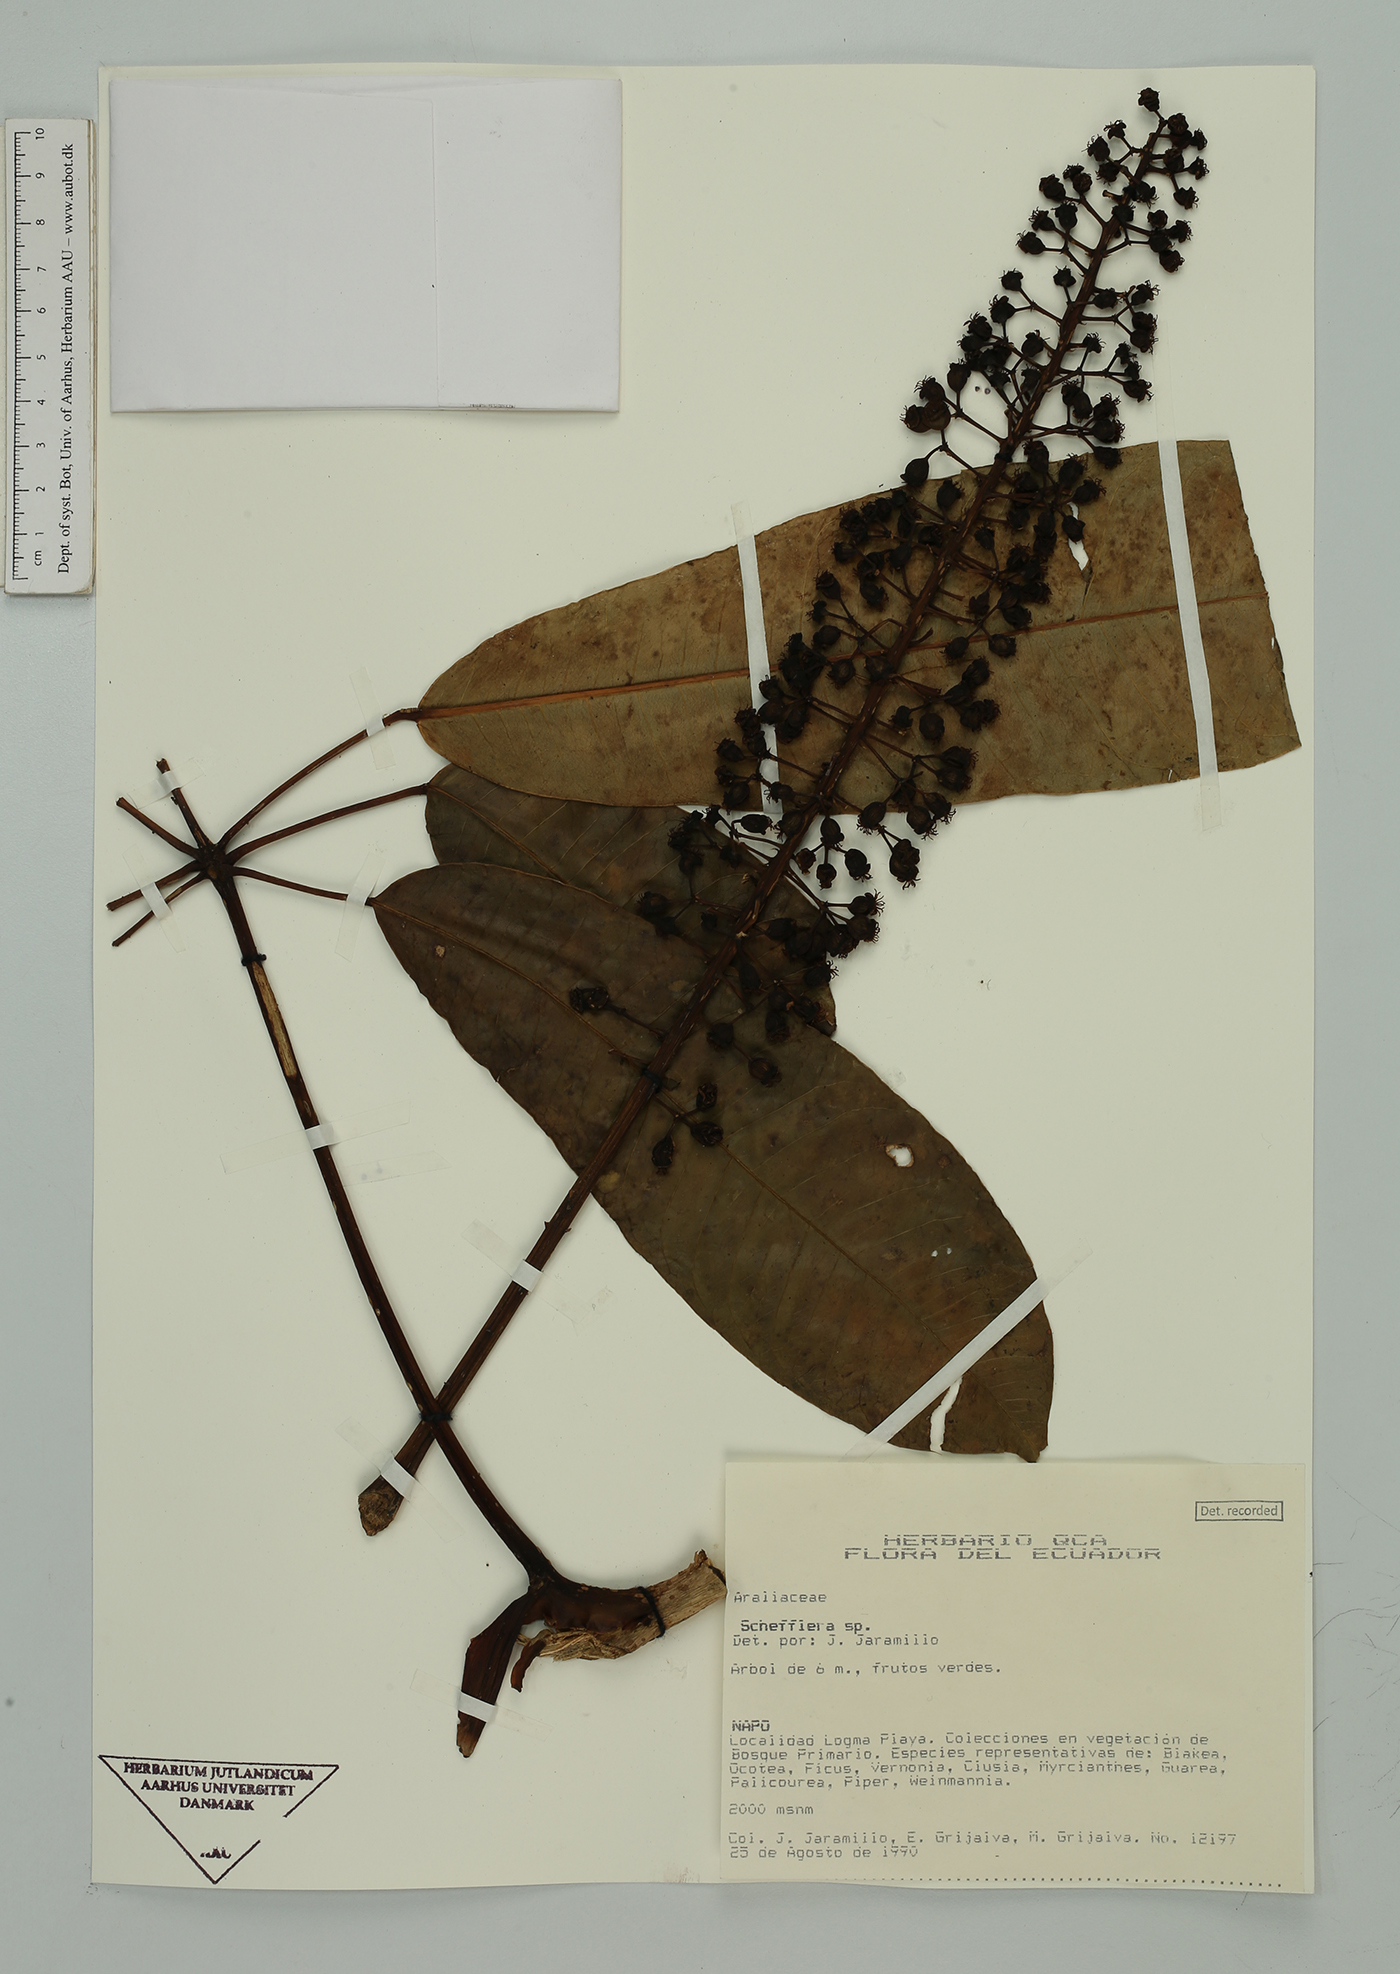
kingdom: Plantae
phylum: Tracheophyta
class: Magnoliopsida
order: Apiales
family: Araliaceae
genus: Sciodaphyllum
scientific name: Sciodaphyllum
